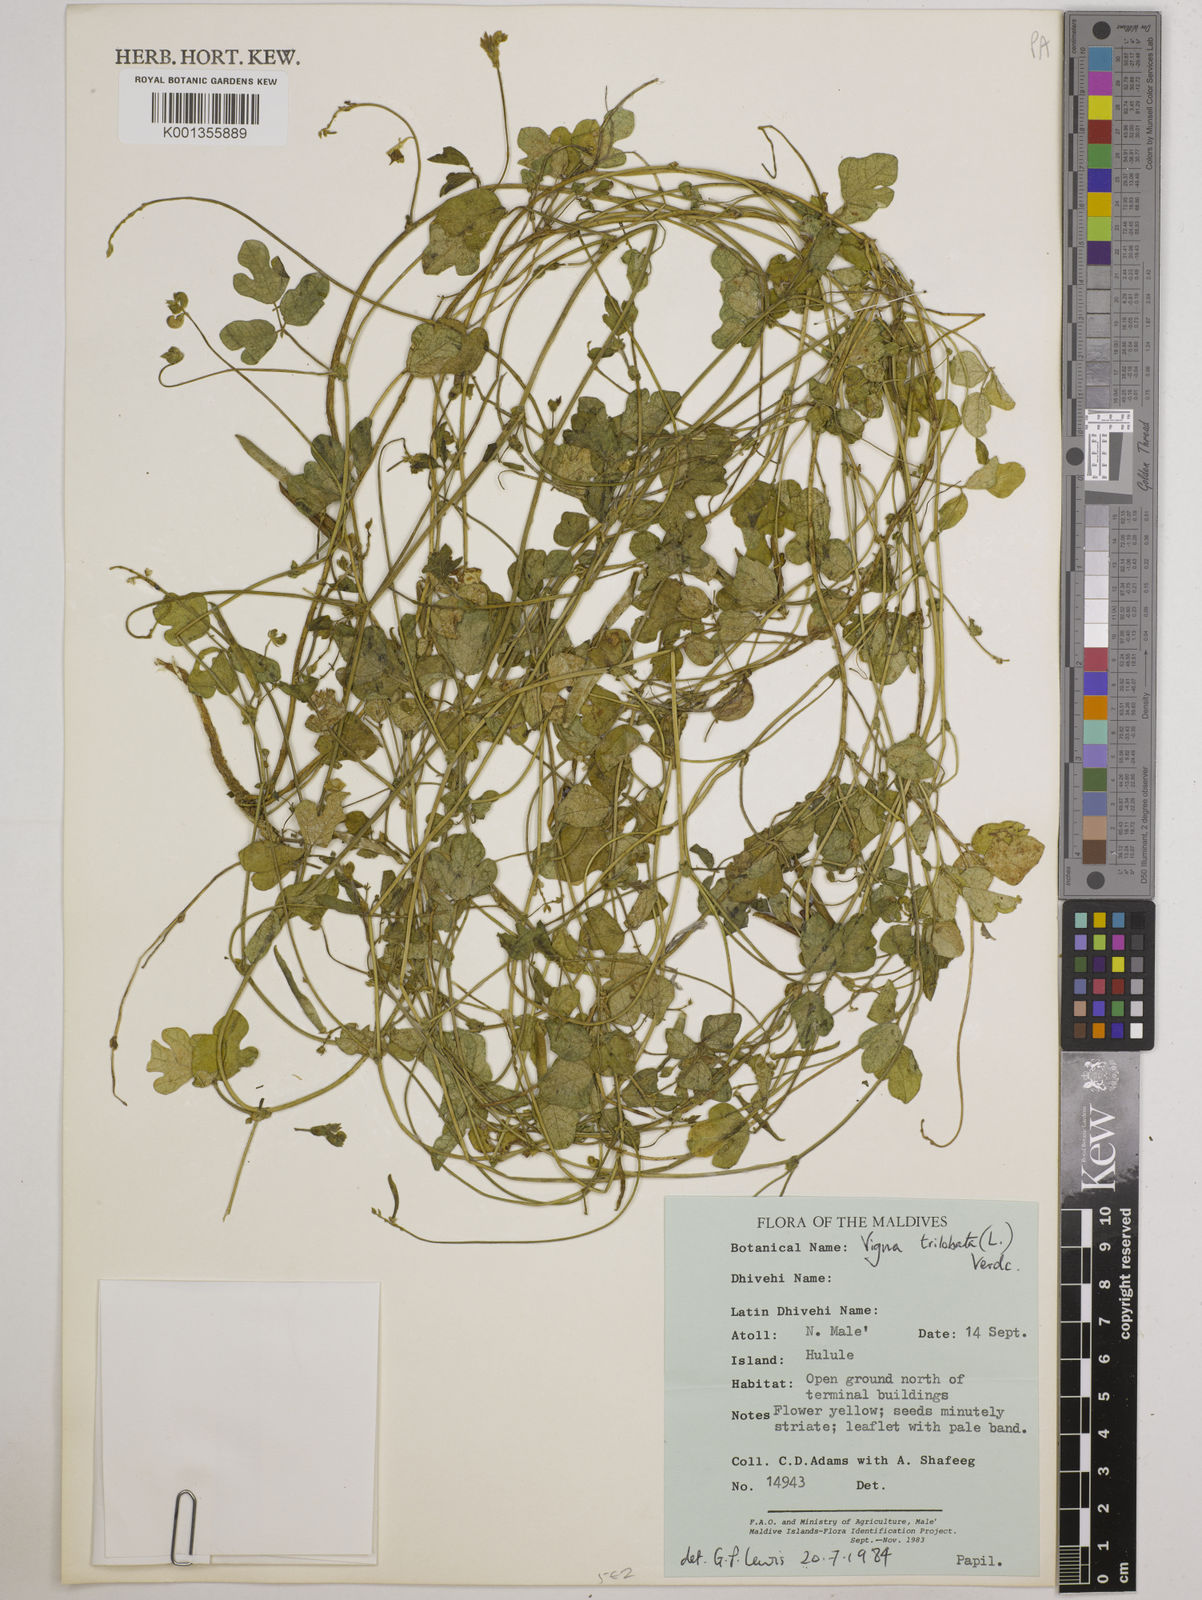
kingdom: Plantae
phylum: Tracheophyta
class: Magnoliopsida
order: Fabales
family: Fabaceae
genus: Vigna
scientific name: Vigna trilobata
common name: Jungli-bean
